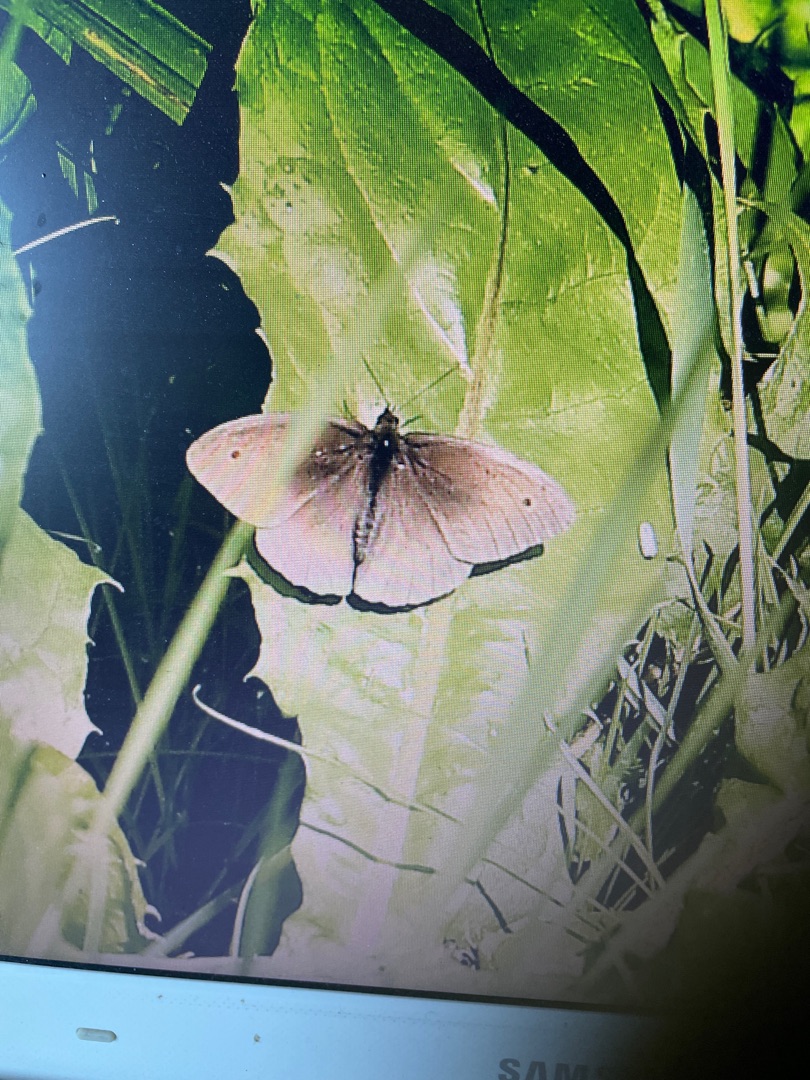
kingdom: Animalia
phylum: Arthropoda
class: Insecta
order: Lepidoptera
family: Nymphalidae
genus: Maniola
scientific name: Maniola jurtina
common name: Græsrandøje
